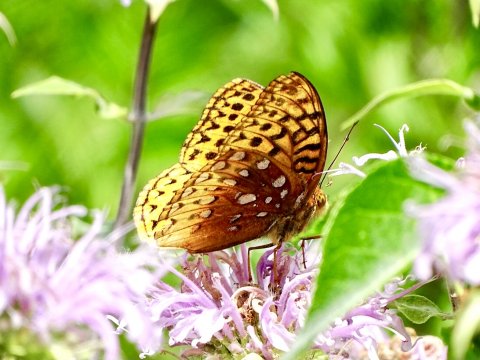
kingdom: Animalia
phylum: Arthropoda
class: Insecta
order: Lepidoptera
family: Nymphalidae
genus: Speyeria
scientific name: Speyeria cybele
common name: Great Spangled Fritillary
